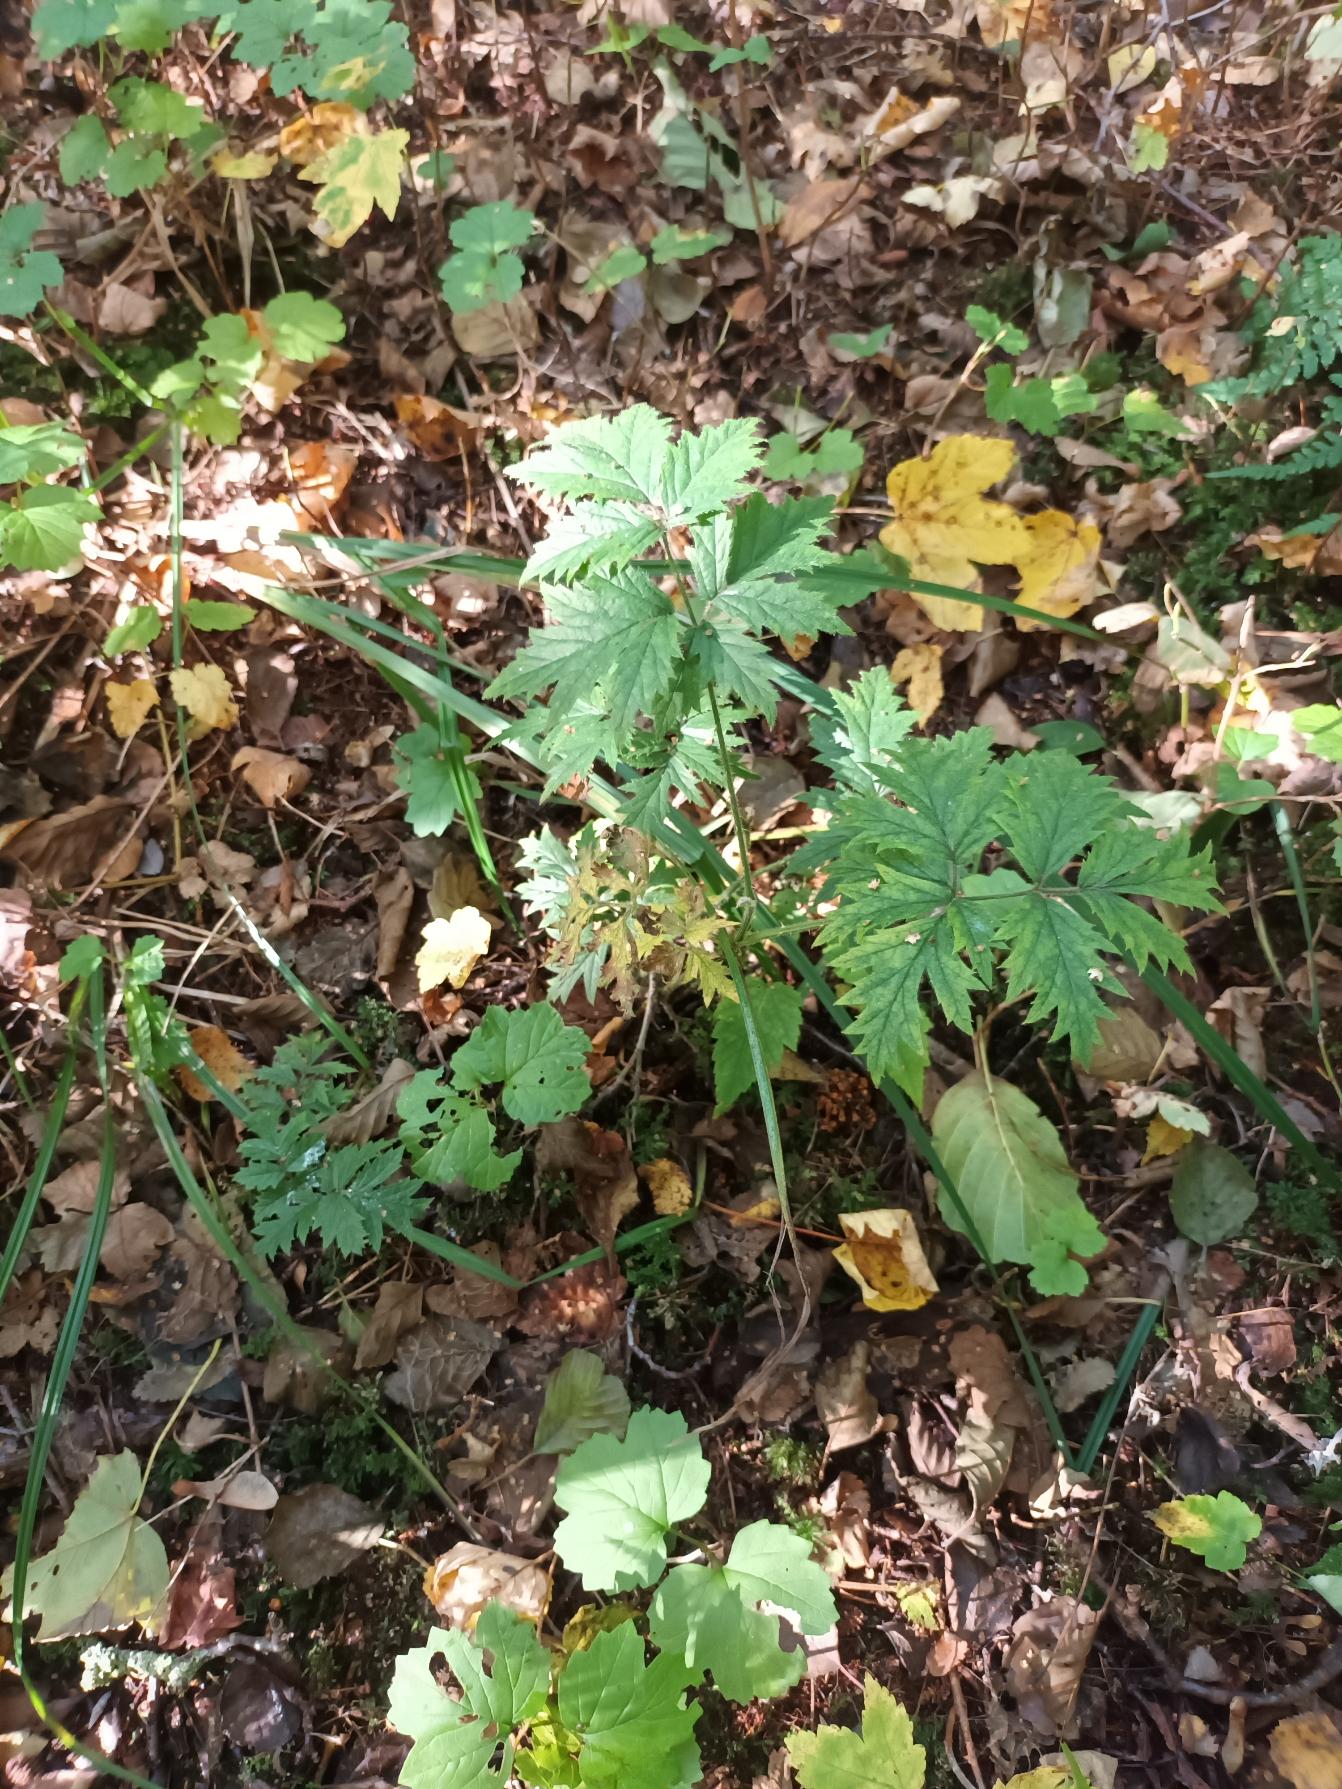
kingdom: Plantae
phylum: Tracheophyta
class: Magnoliopsida
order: Rosales
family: Rosaceae
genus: Rubus
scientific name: Rubus laciniatus
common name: Fliget brombær
